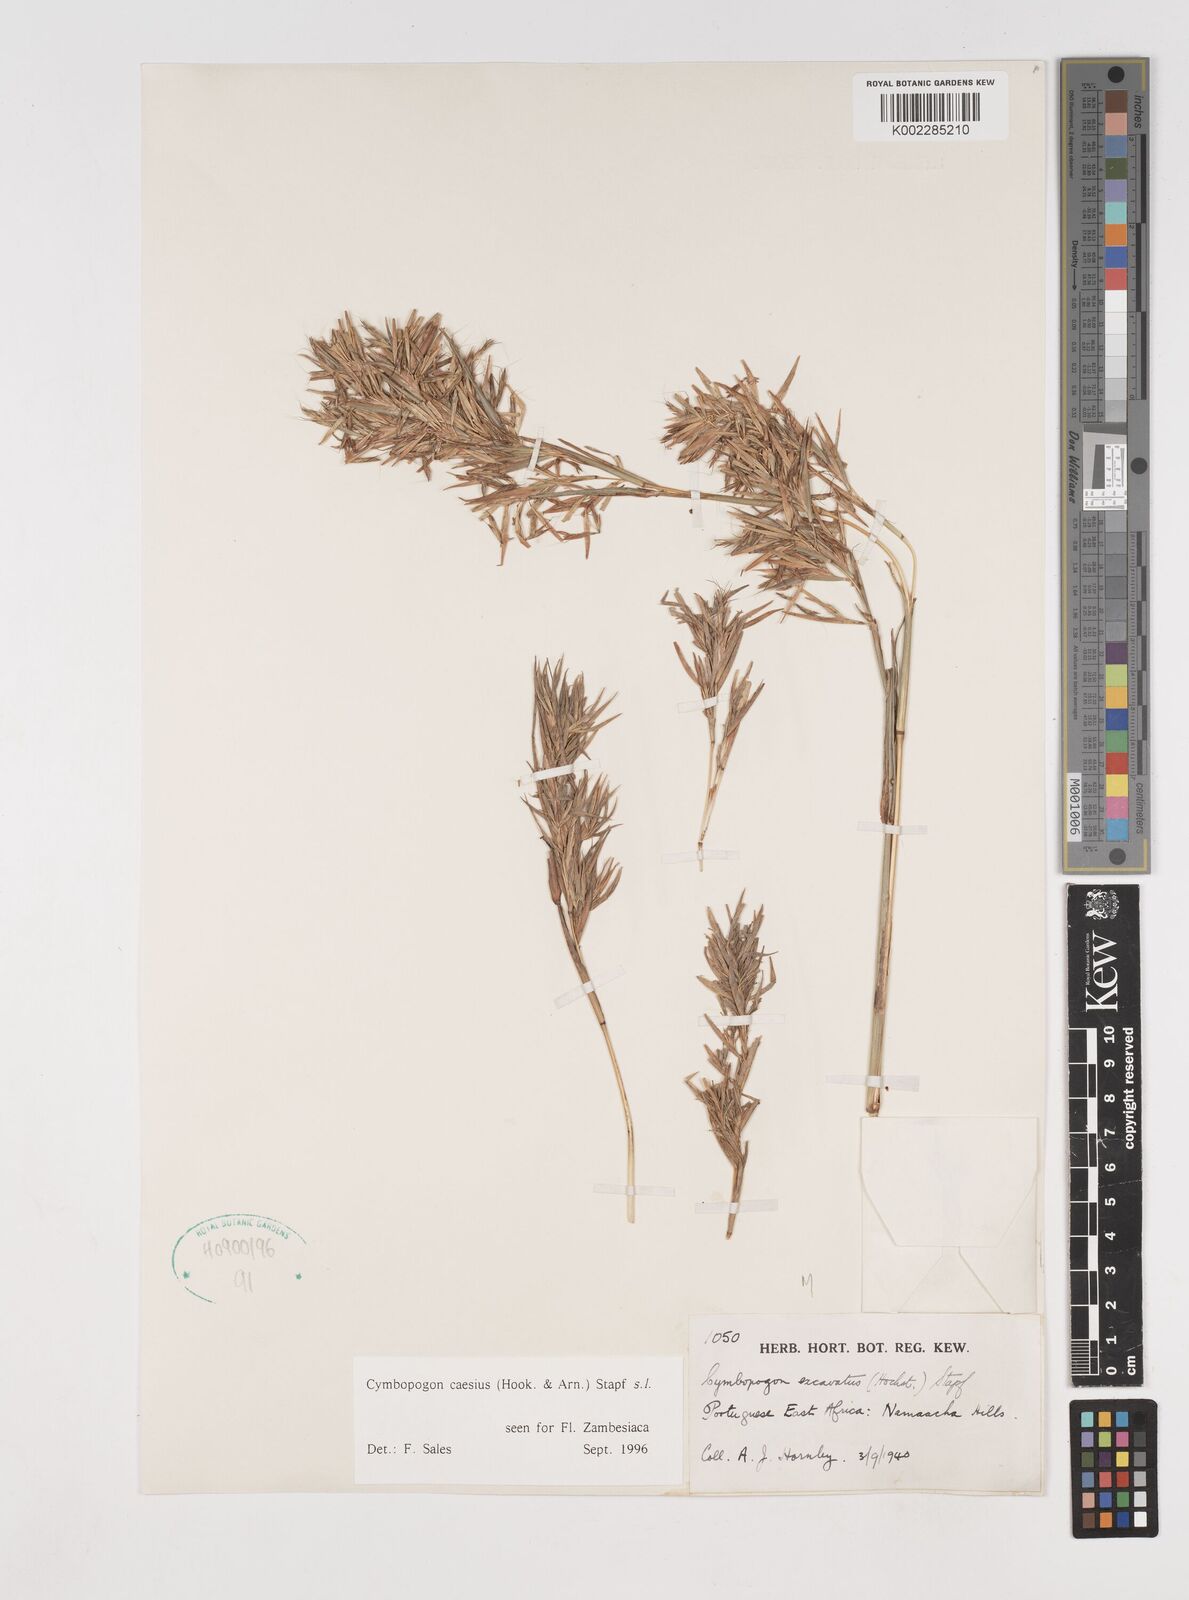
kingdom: Plantae
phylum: Tracheophyta
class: Liliopsida
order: Poales
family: Poaceae
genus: Cymbopogon
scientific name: Cymbopogon caesius
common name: Kachi grass
